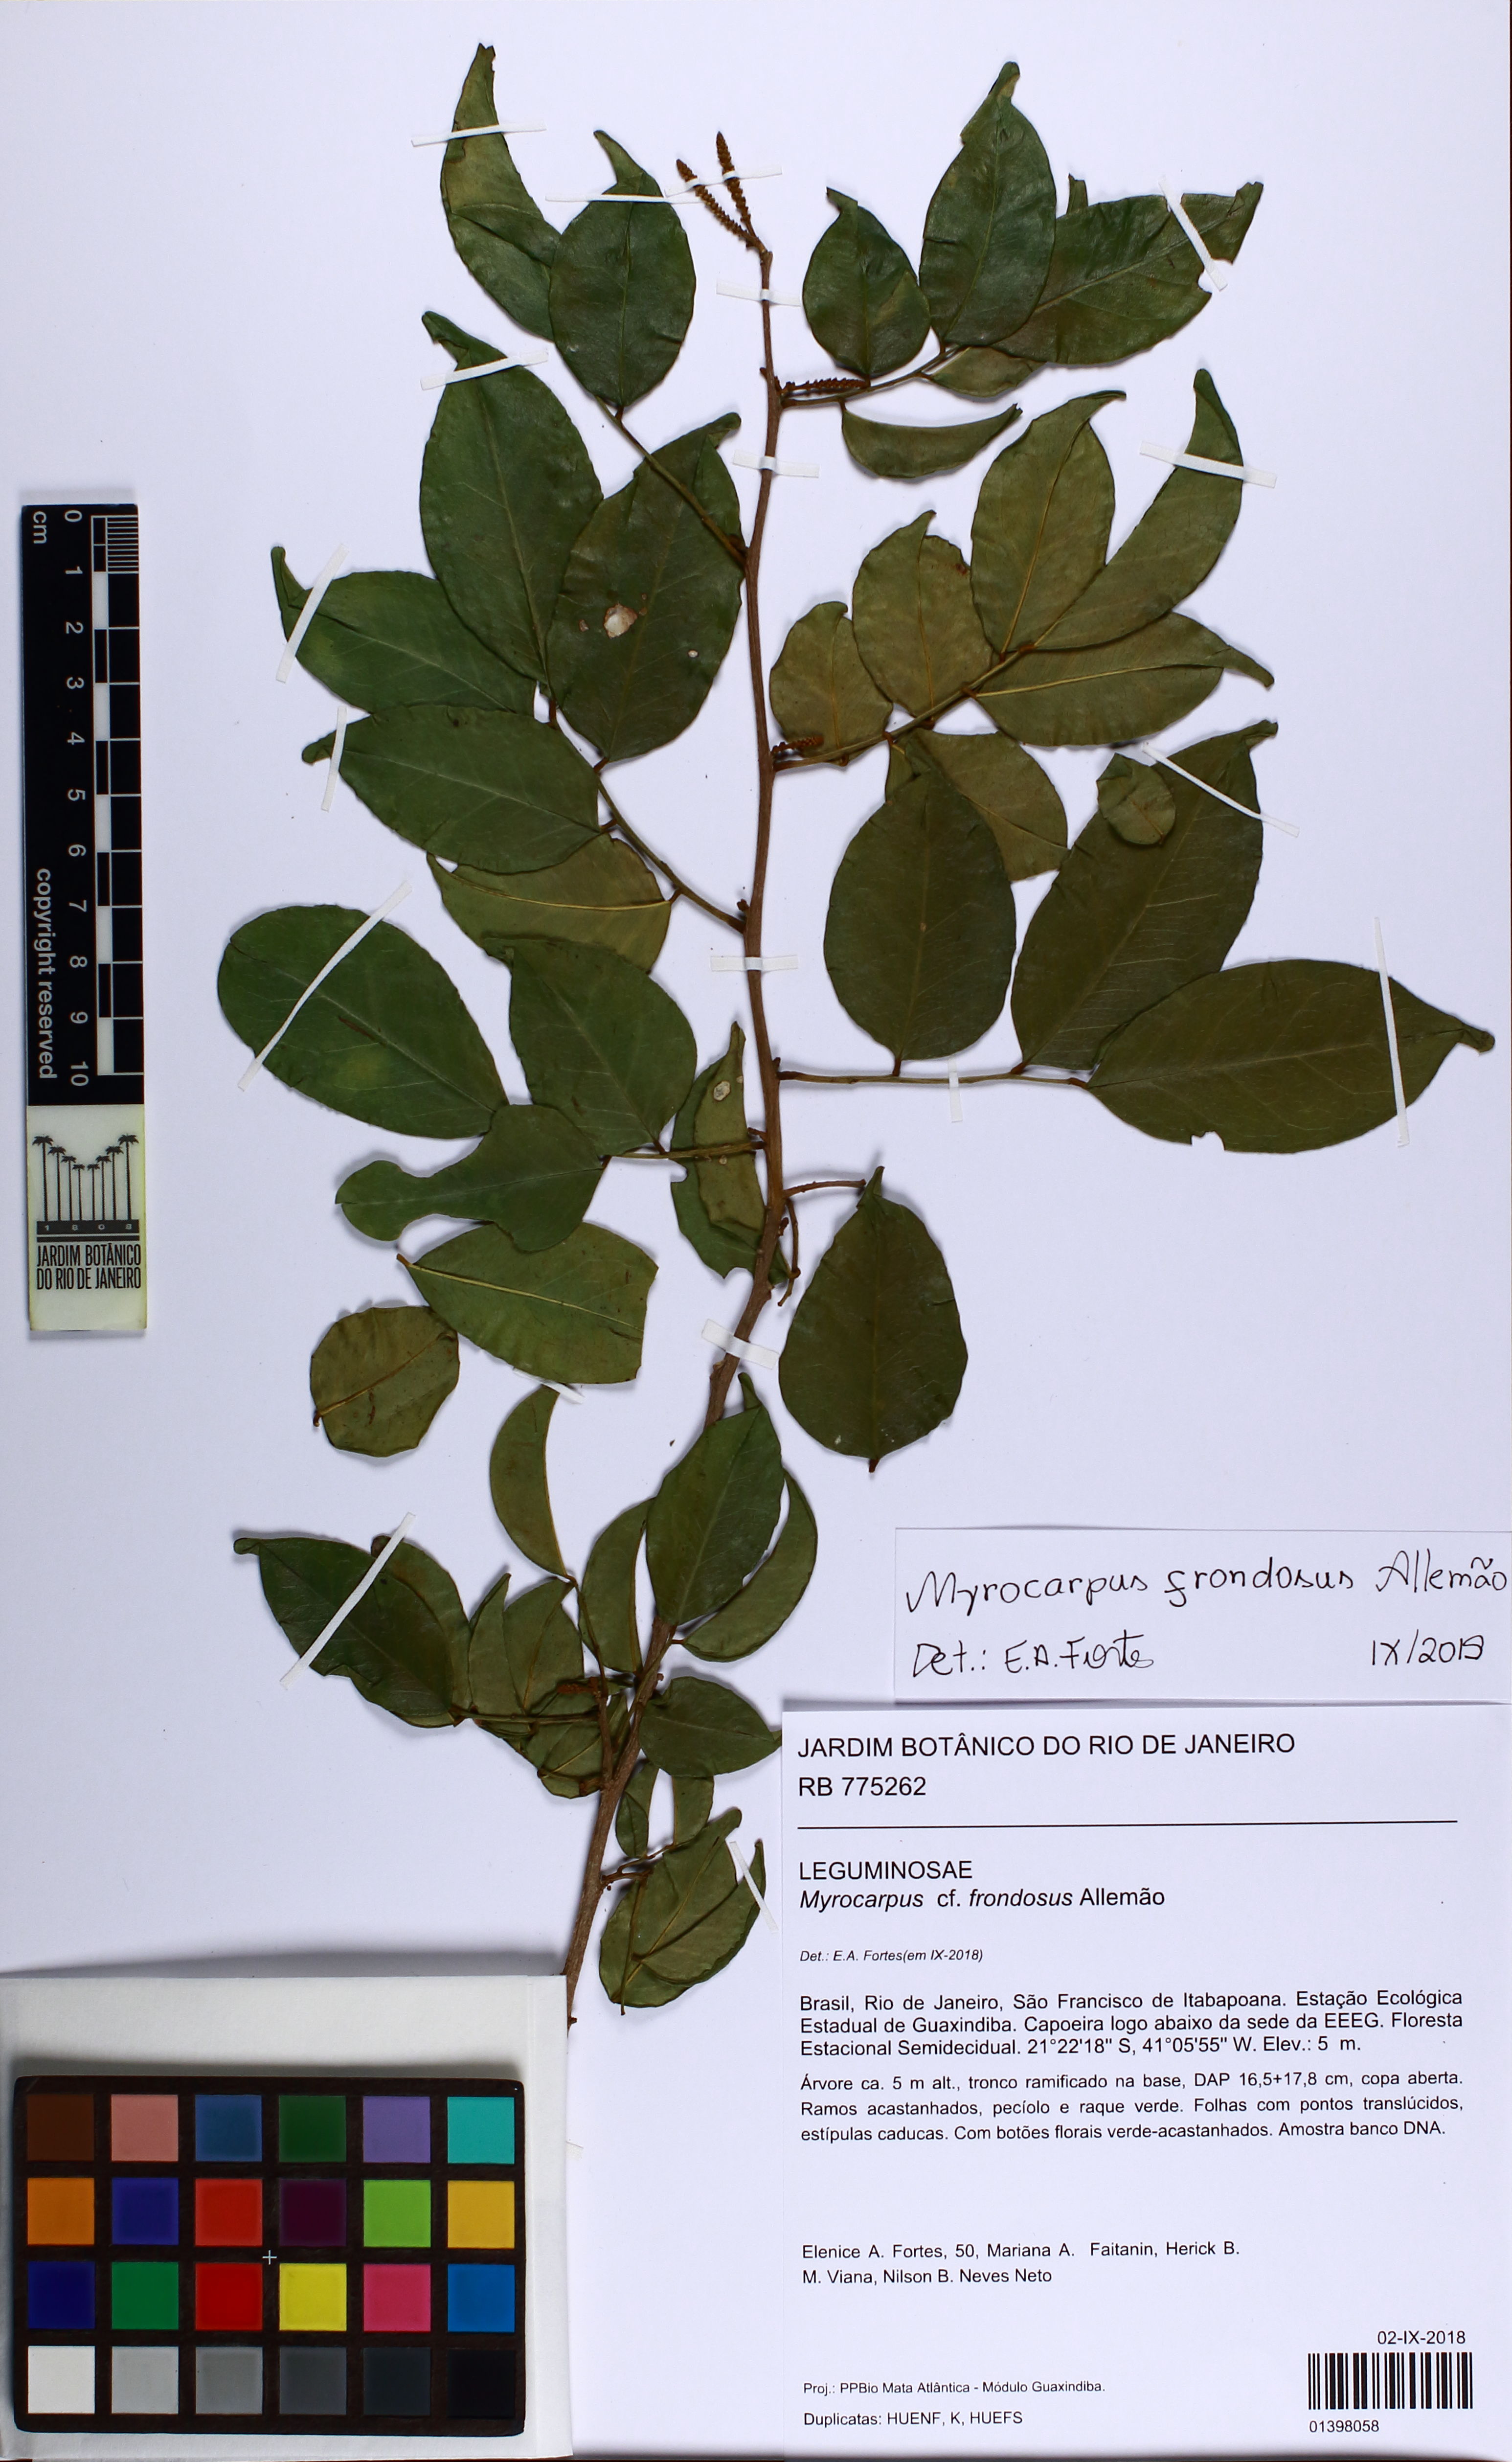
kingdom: Plantae
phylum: Tracheophyta
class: Magnoliopsida
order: Fabales
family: Fabaceae
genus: Myrocarpus
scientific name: Myrocarpus frondosus
